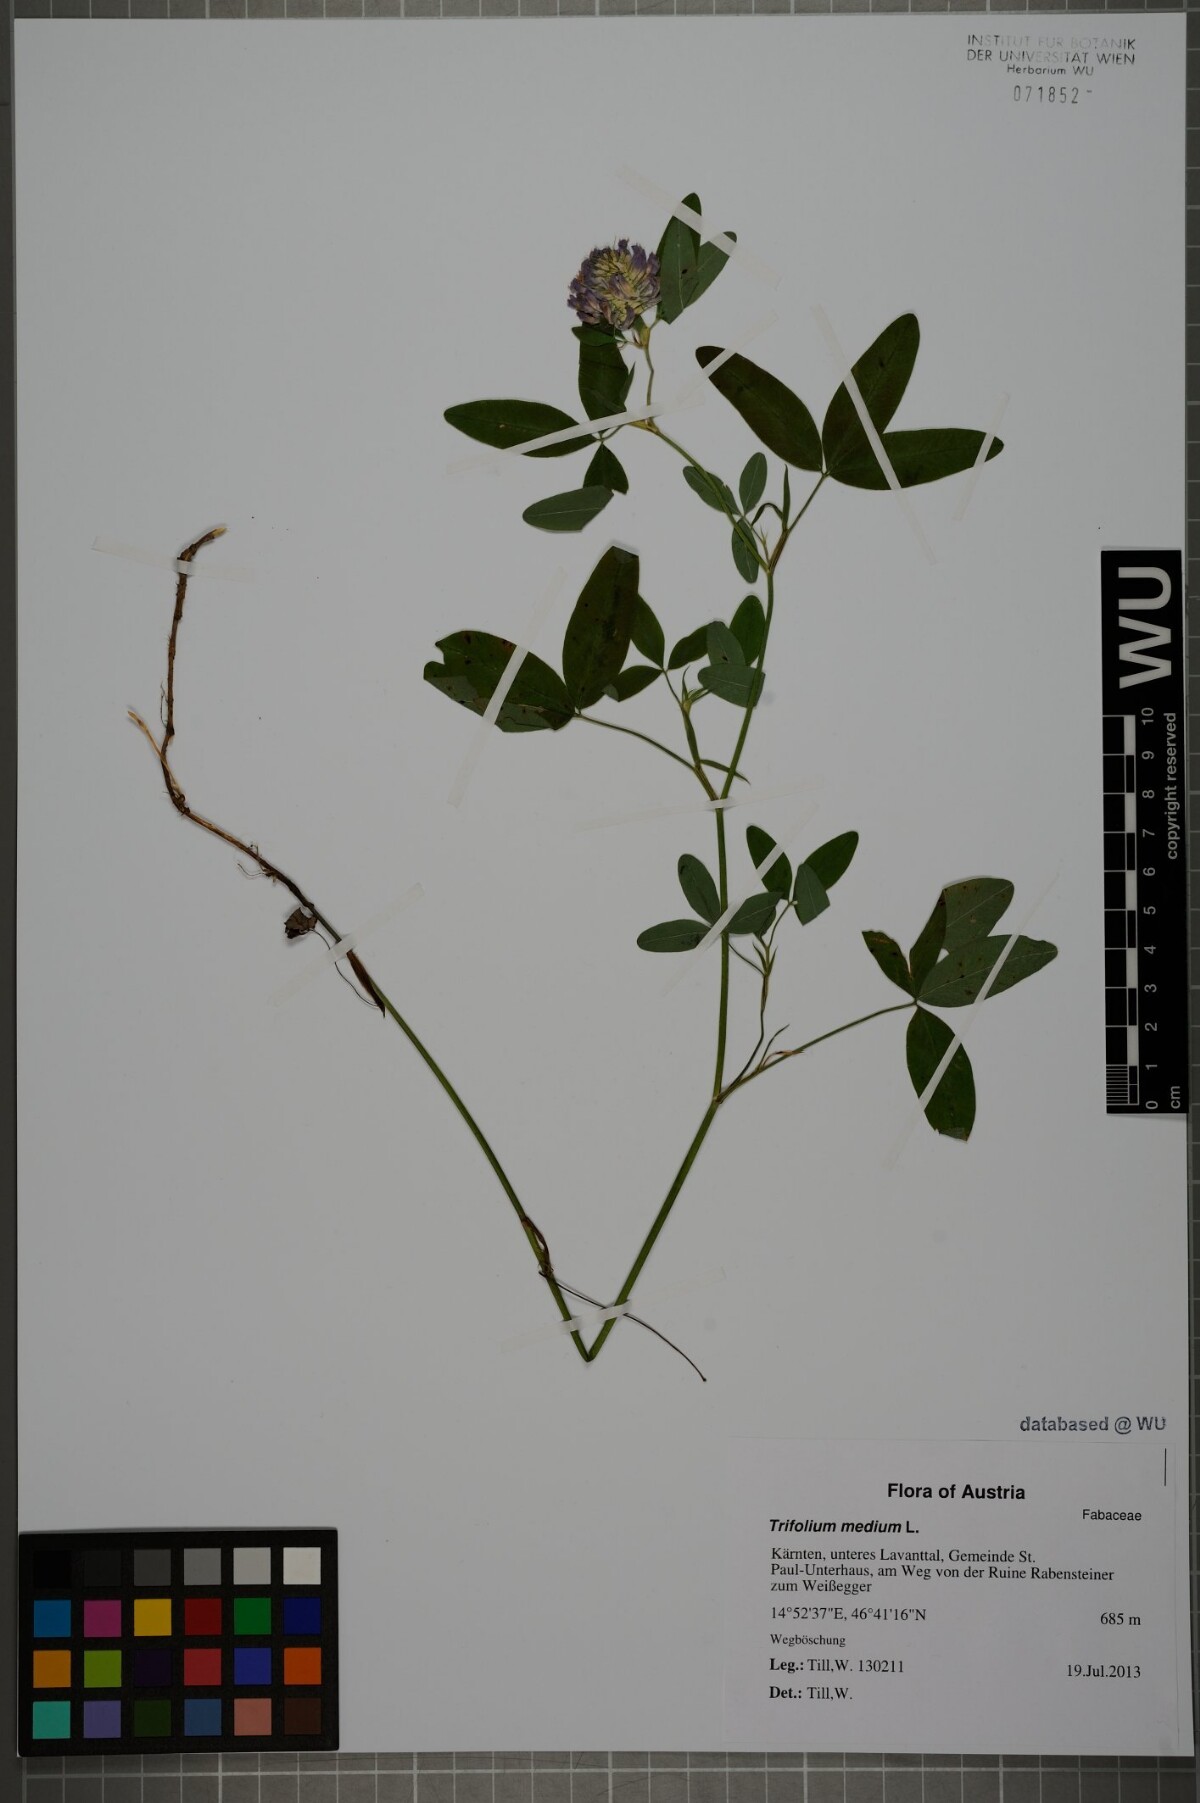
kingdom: Plantae
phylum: Tracheophyta
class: Magnoliopsida
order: Fabales
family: Fabaceae
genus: Trifolium
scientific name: Trifolium medium
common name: Zigzag clover
